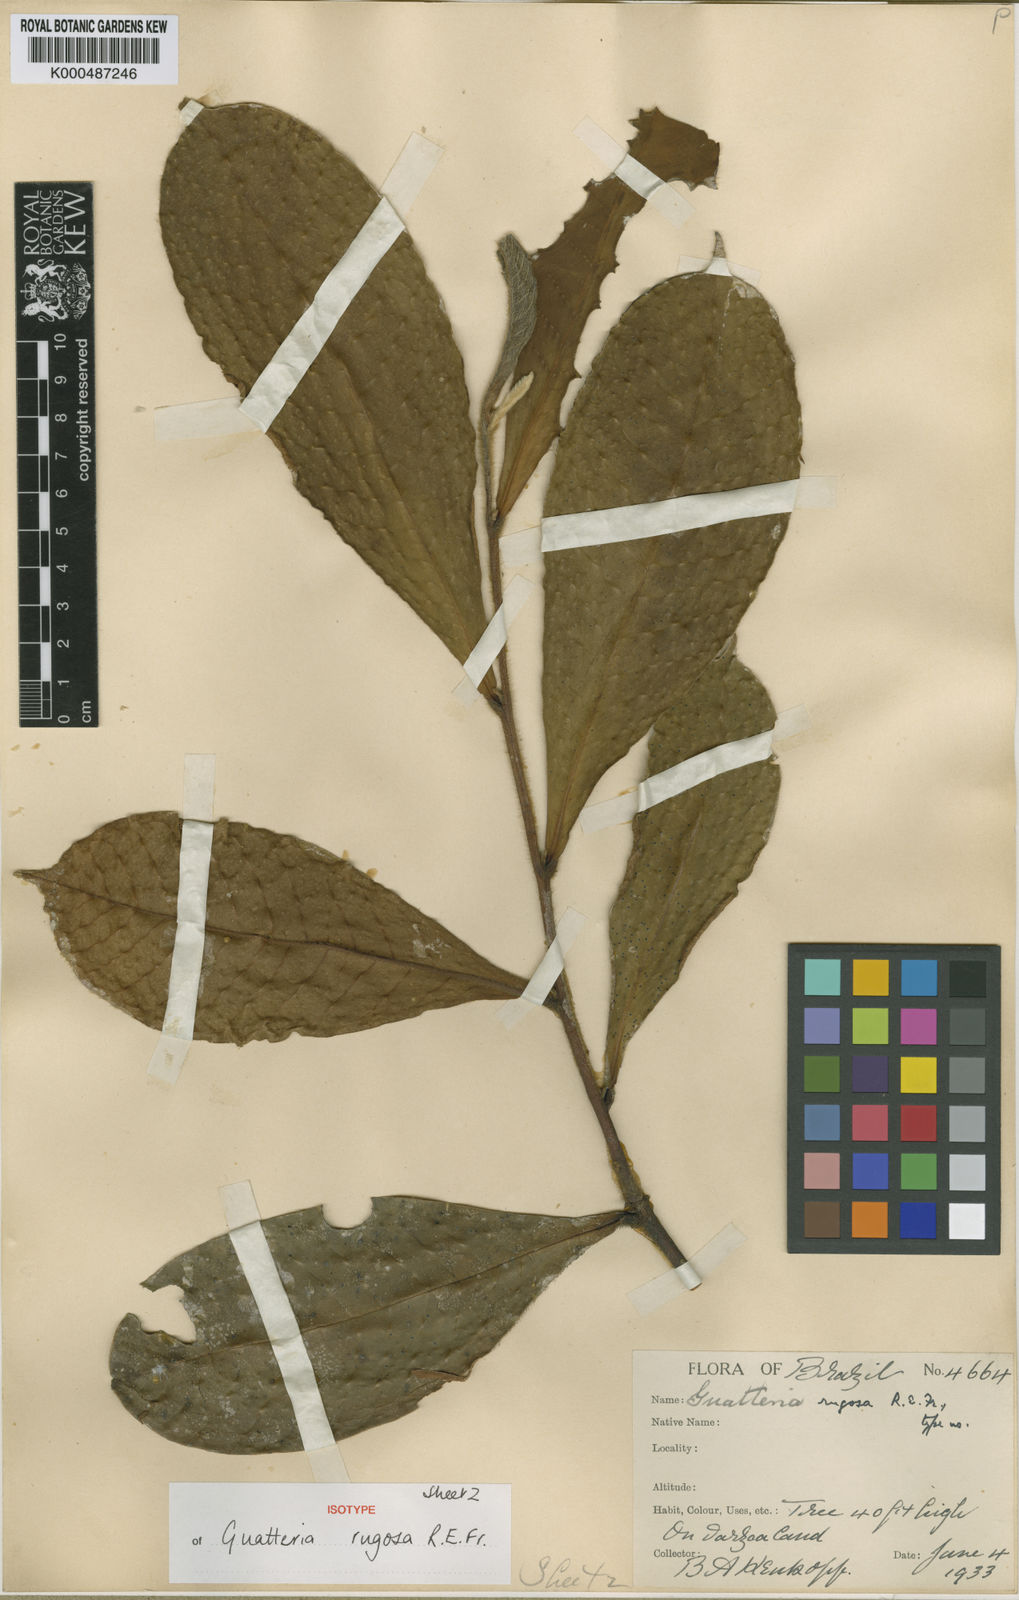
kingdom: Plantae
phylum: Tracheophyta
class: Magnoliopsida
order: Magnoliales
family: Annonaceae
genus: Guatteria
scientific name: Guatteria decurrens
